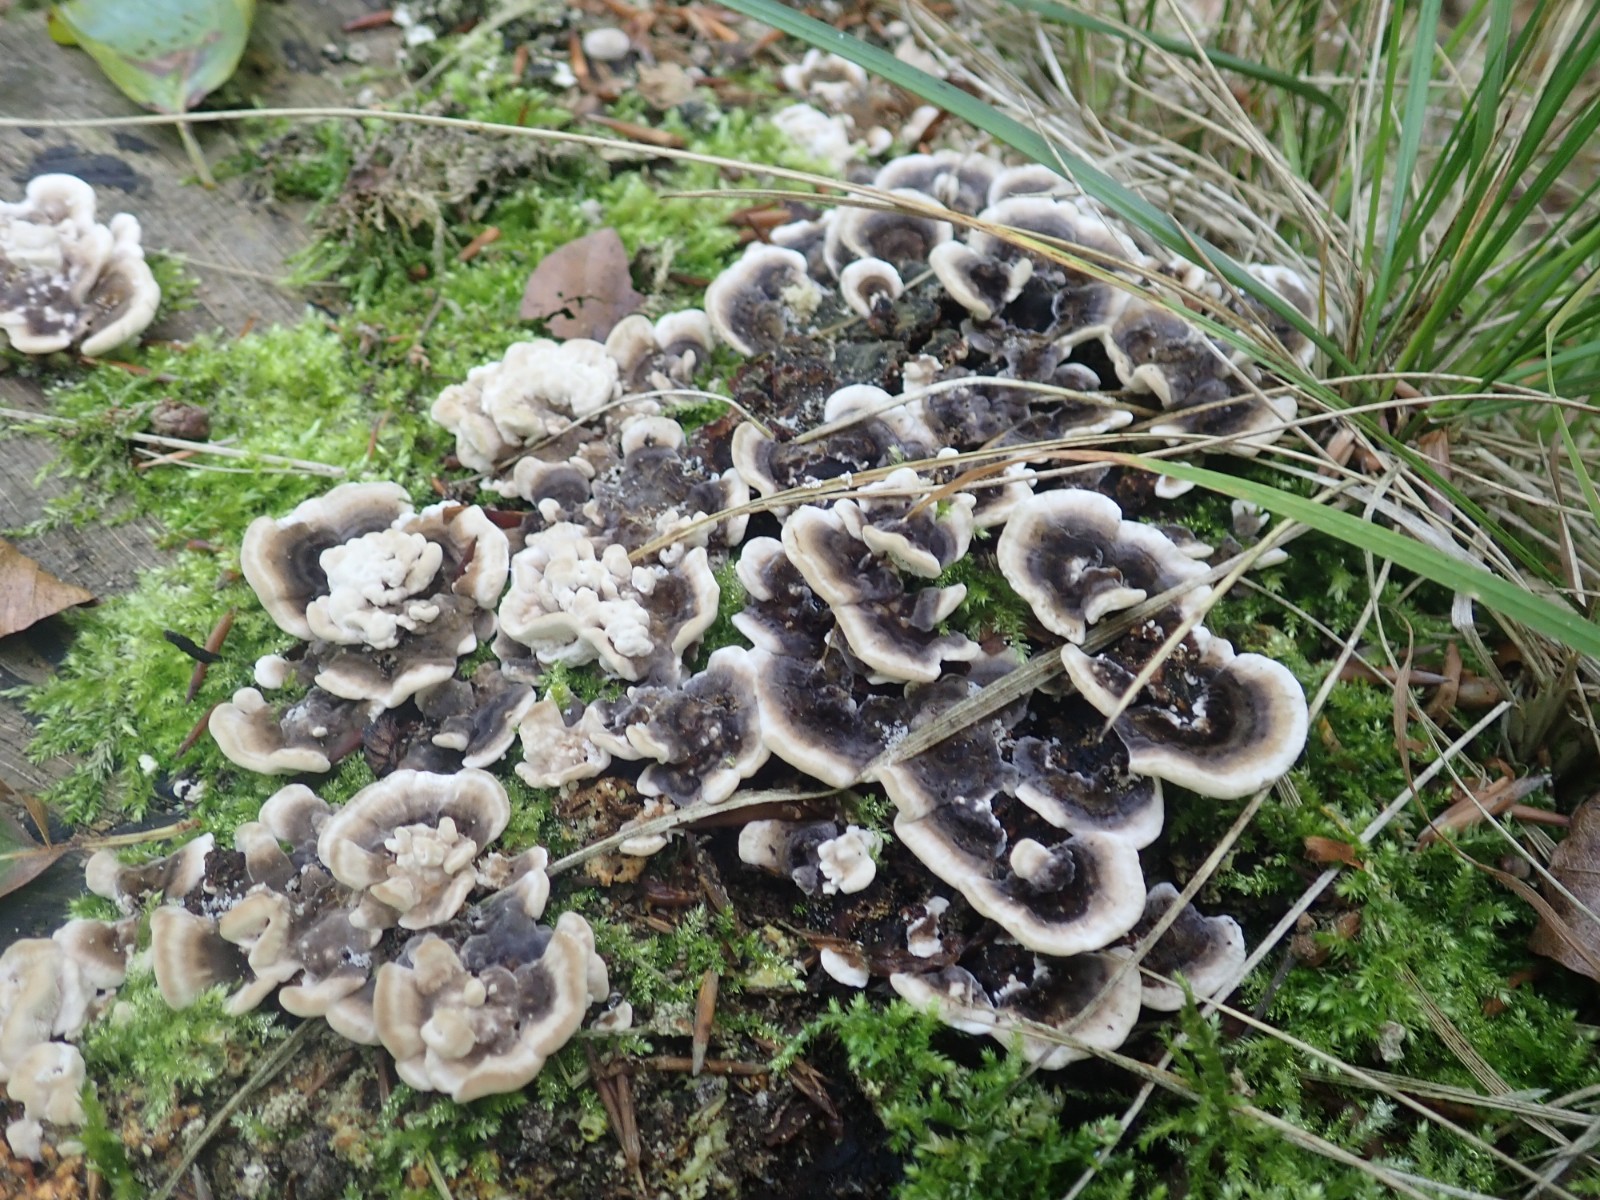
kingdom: Fungi
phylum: Basidiomycota
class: Agaricomycetes
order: Polyporales
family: Polyporaceae
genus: Trametes
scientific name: Trametes versicolor
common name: broget læderporesvamp
